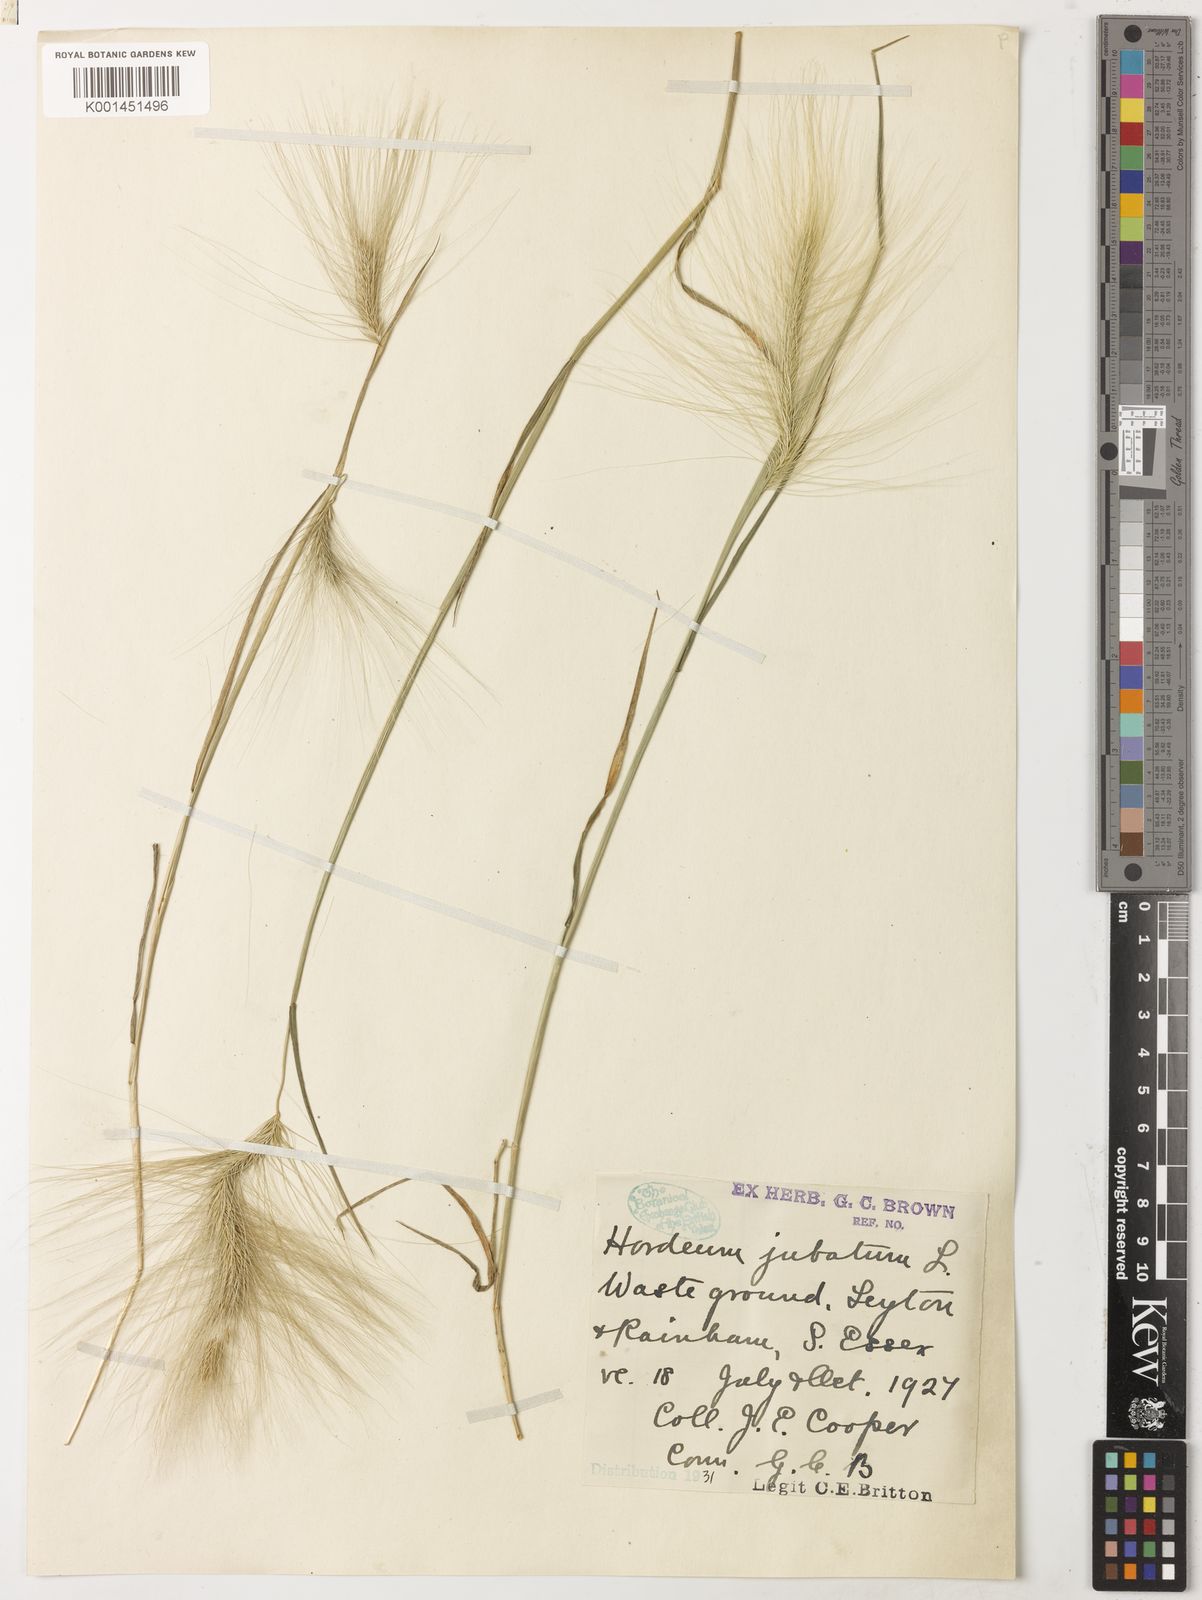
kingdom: Plantae
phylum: Tracheophyta
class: Liliopsida
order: Poales
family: Poaceae
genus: Hordeum
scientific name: Hordeum jubatum
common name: Foxtail barley
